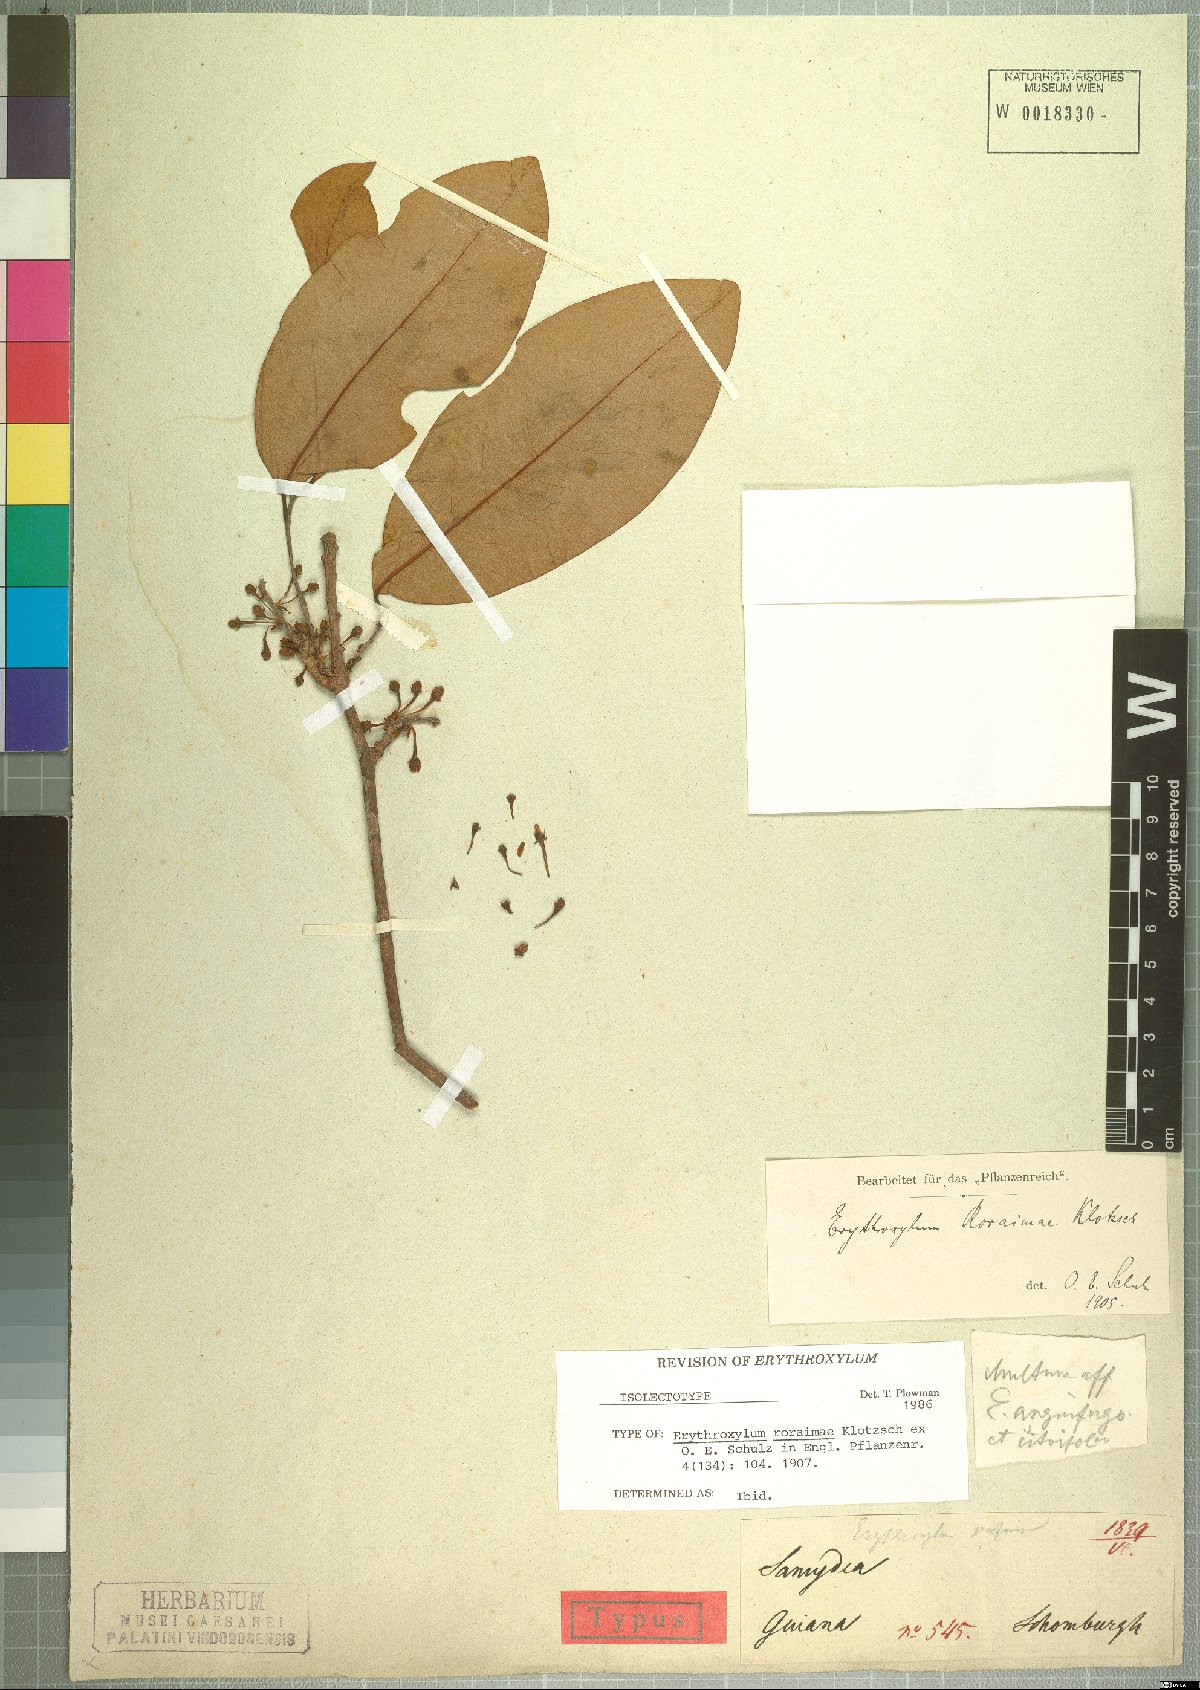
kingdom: Plantae
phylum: Tracheophyta
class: Magnoliopsida
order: Malpighiales
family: Erythroxylaceae
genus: Erythroxylum
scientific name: Erythroxylum roraimae
